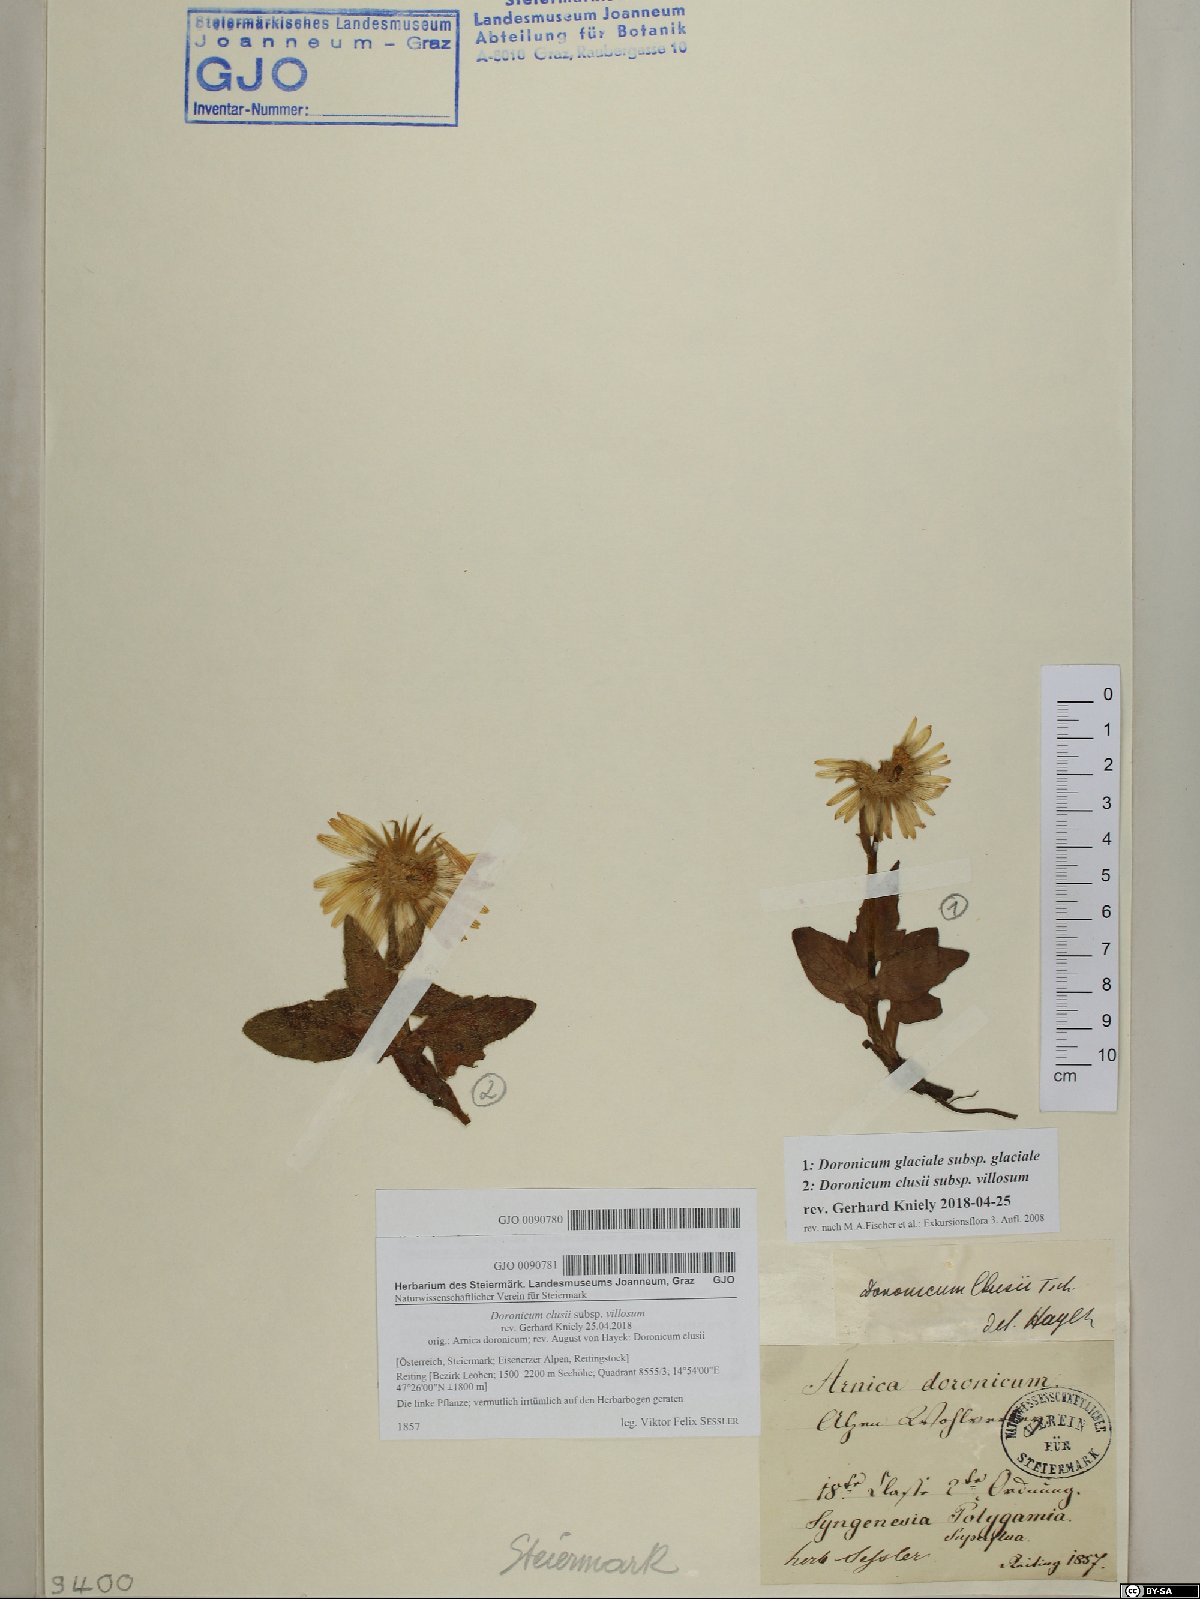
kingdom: Plantae
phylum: Tracheophyta
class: Magnoliopsida
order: Asterales
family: Asteraceae
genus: Doronicum
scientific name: Doronicum glaciale
